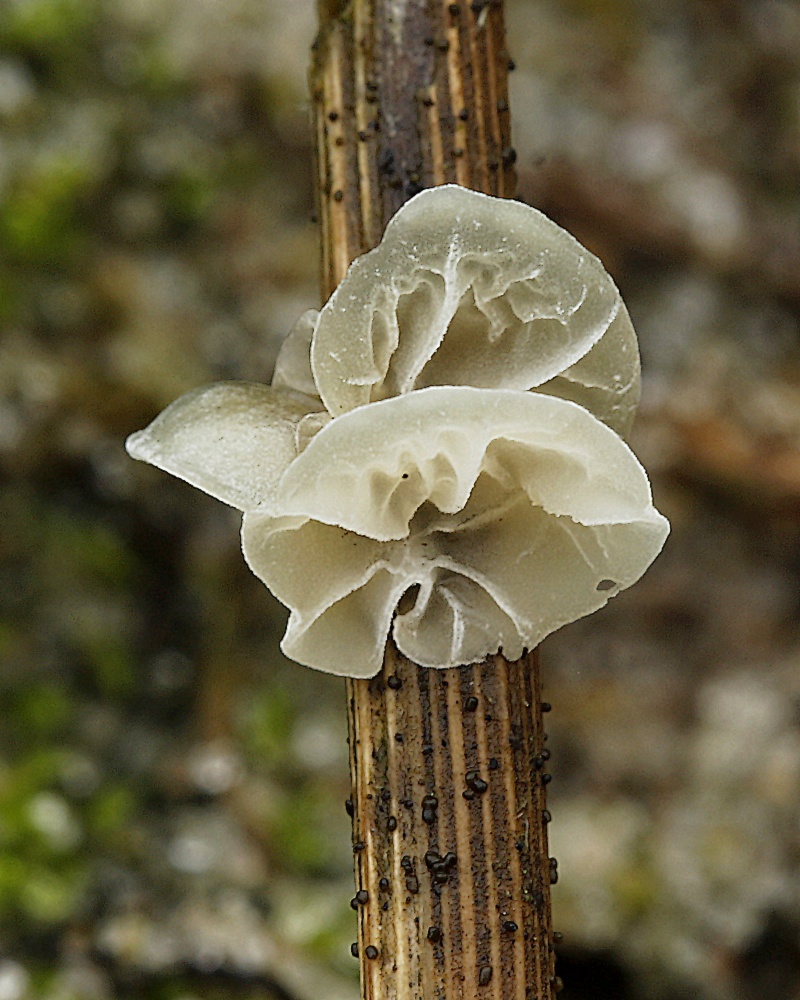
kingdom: Fungi
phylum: Basidiomycota
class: Agaricomycetes
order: Agaricales
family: Marasmiaceae
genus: Campanella
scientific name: Campanella caesia
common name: bruskøre
